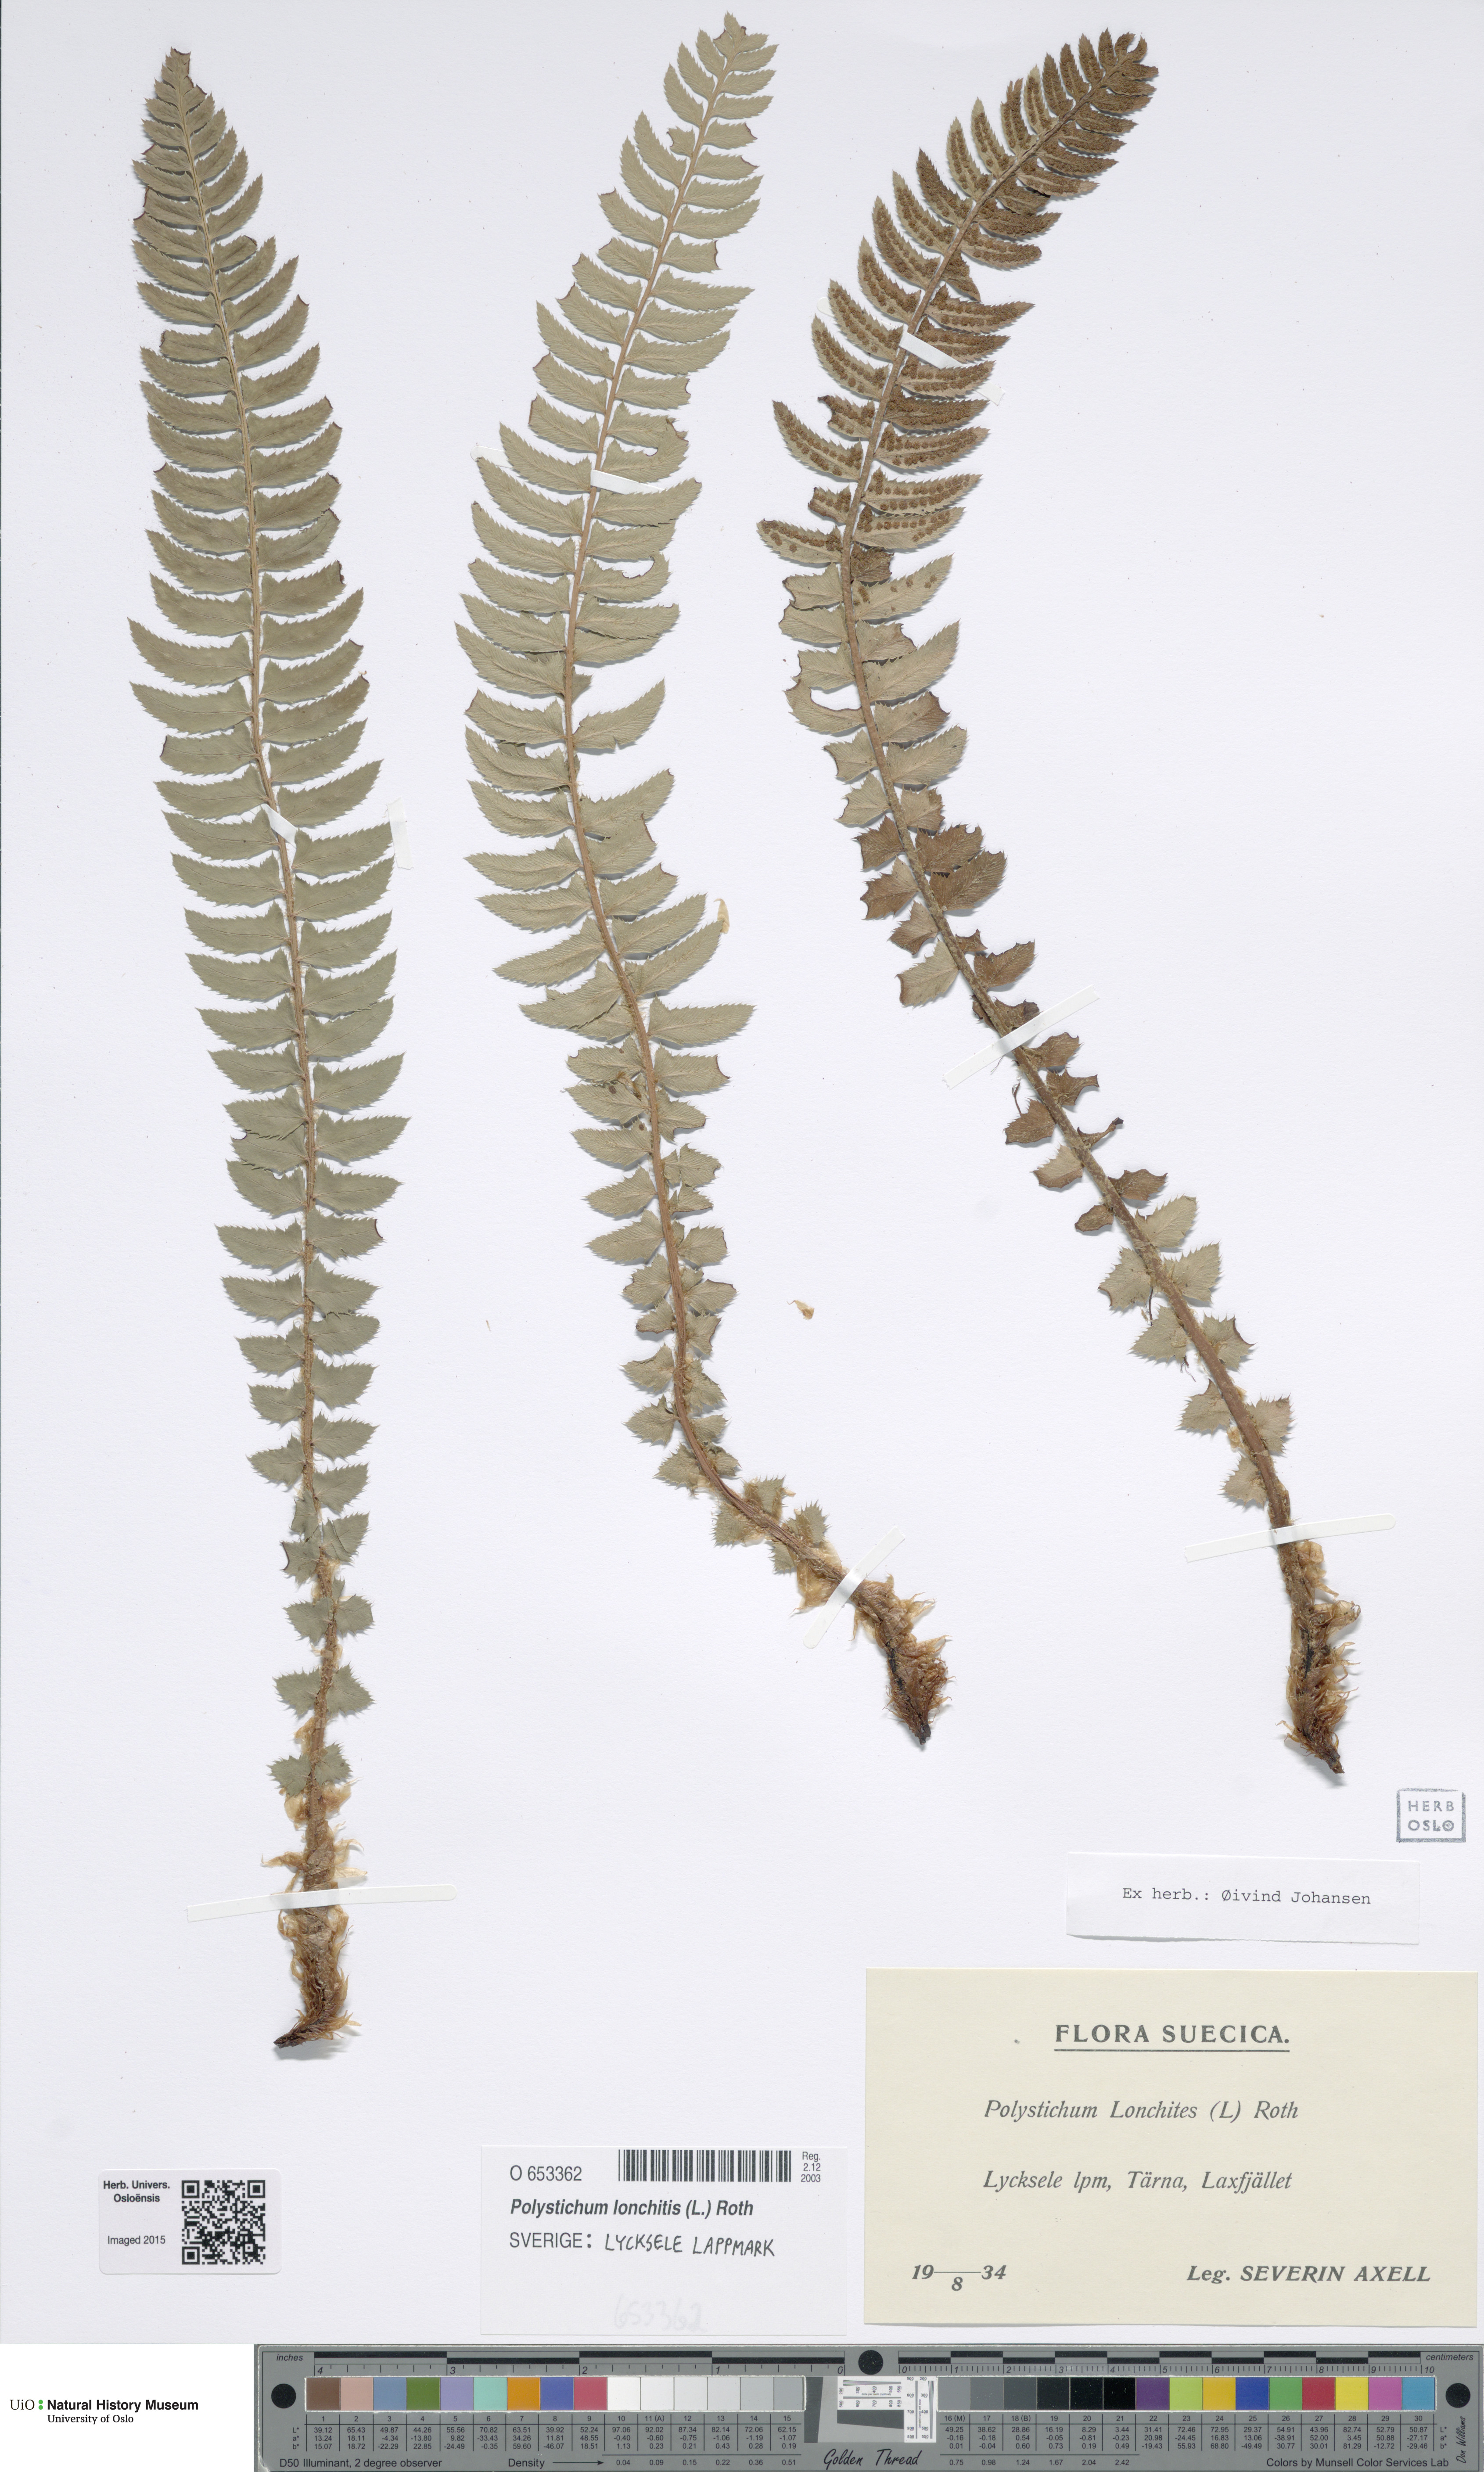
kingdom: Plantae
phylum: Tracheophyta
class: Polypodiopsida
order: Polypodiales
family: Dryopteridaceae
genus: Polystichum
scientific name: Polystichum lonchitis
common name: Holly fern
